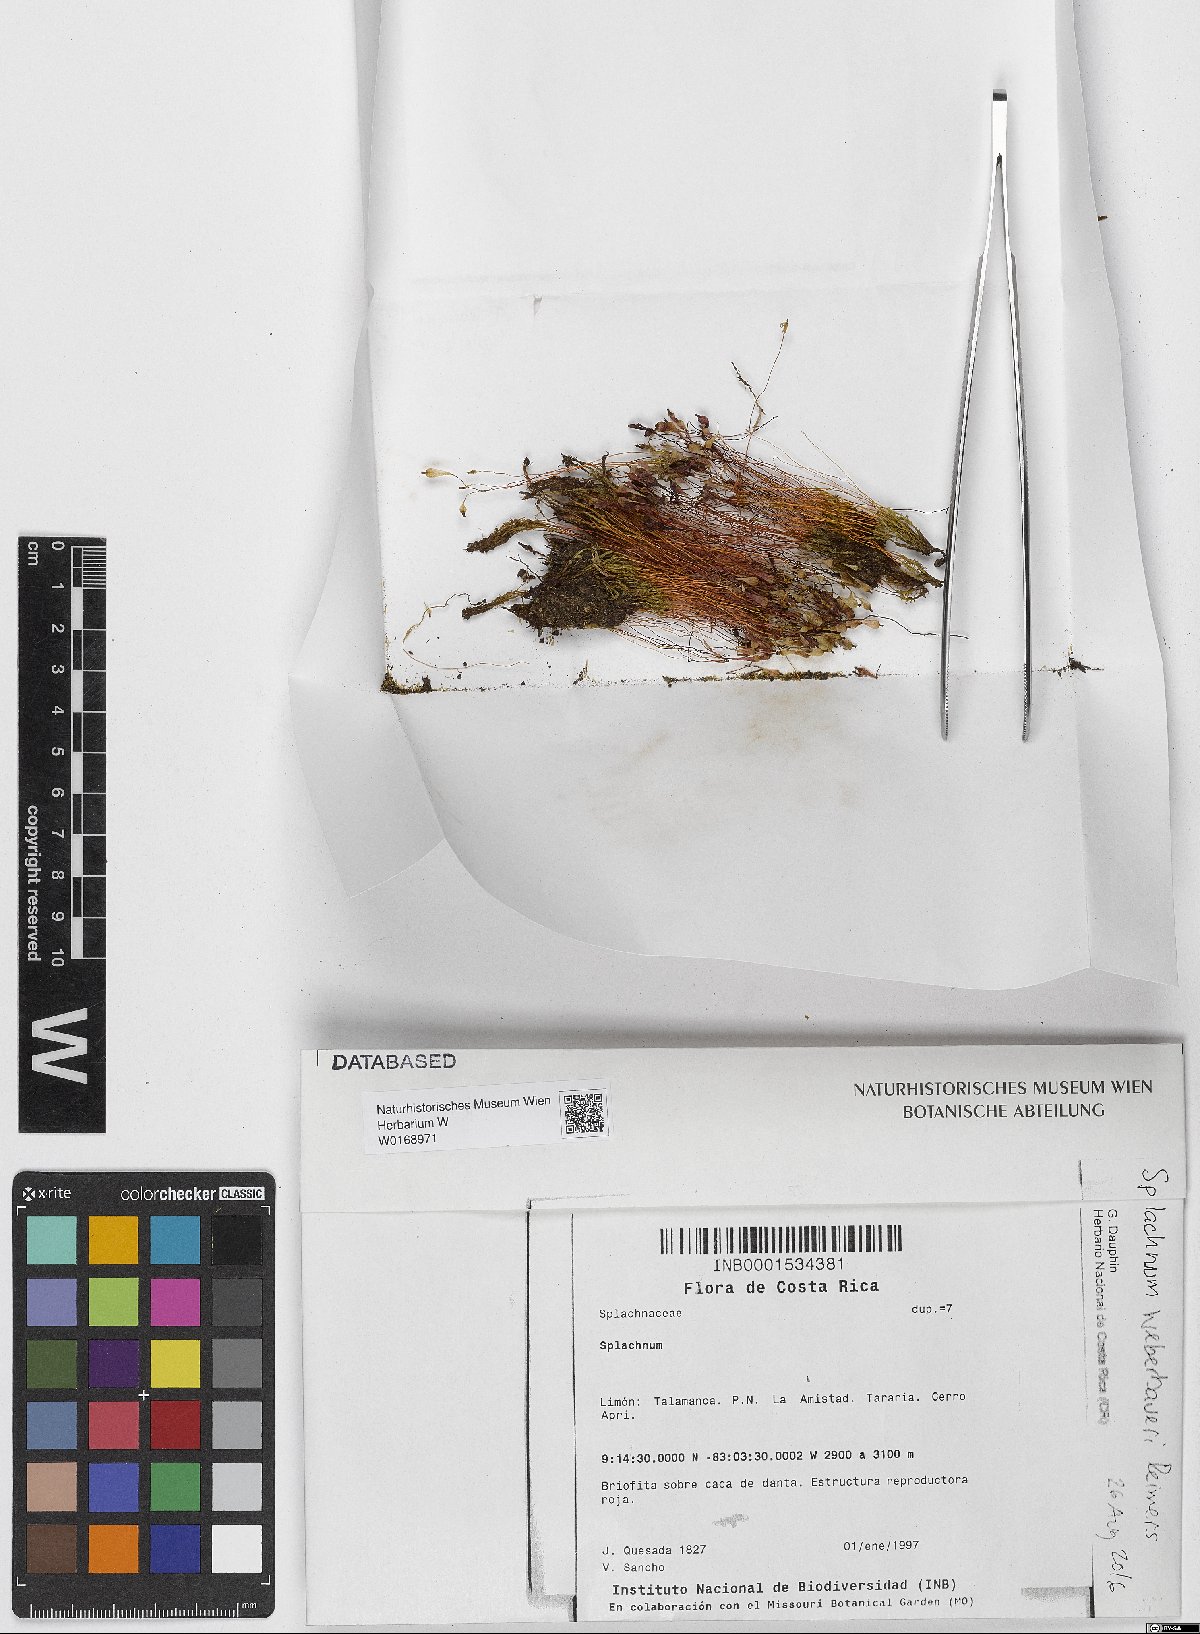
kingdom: Plantae
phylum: Bryophyta
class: Bryopsida
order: Splachnales
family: Splachnaceae
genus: Splachnum
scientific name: Splachnum
